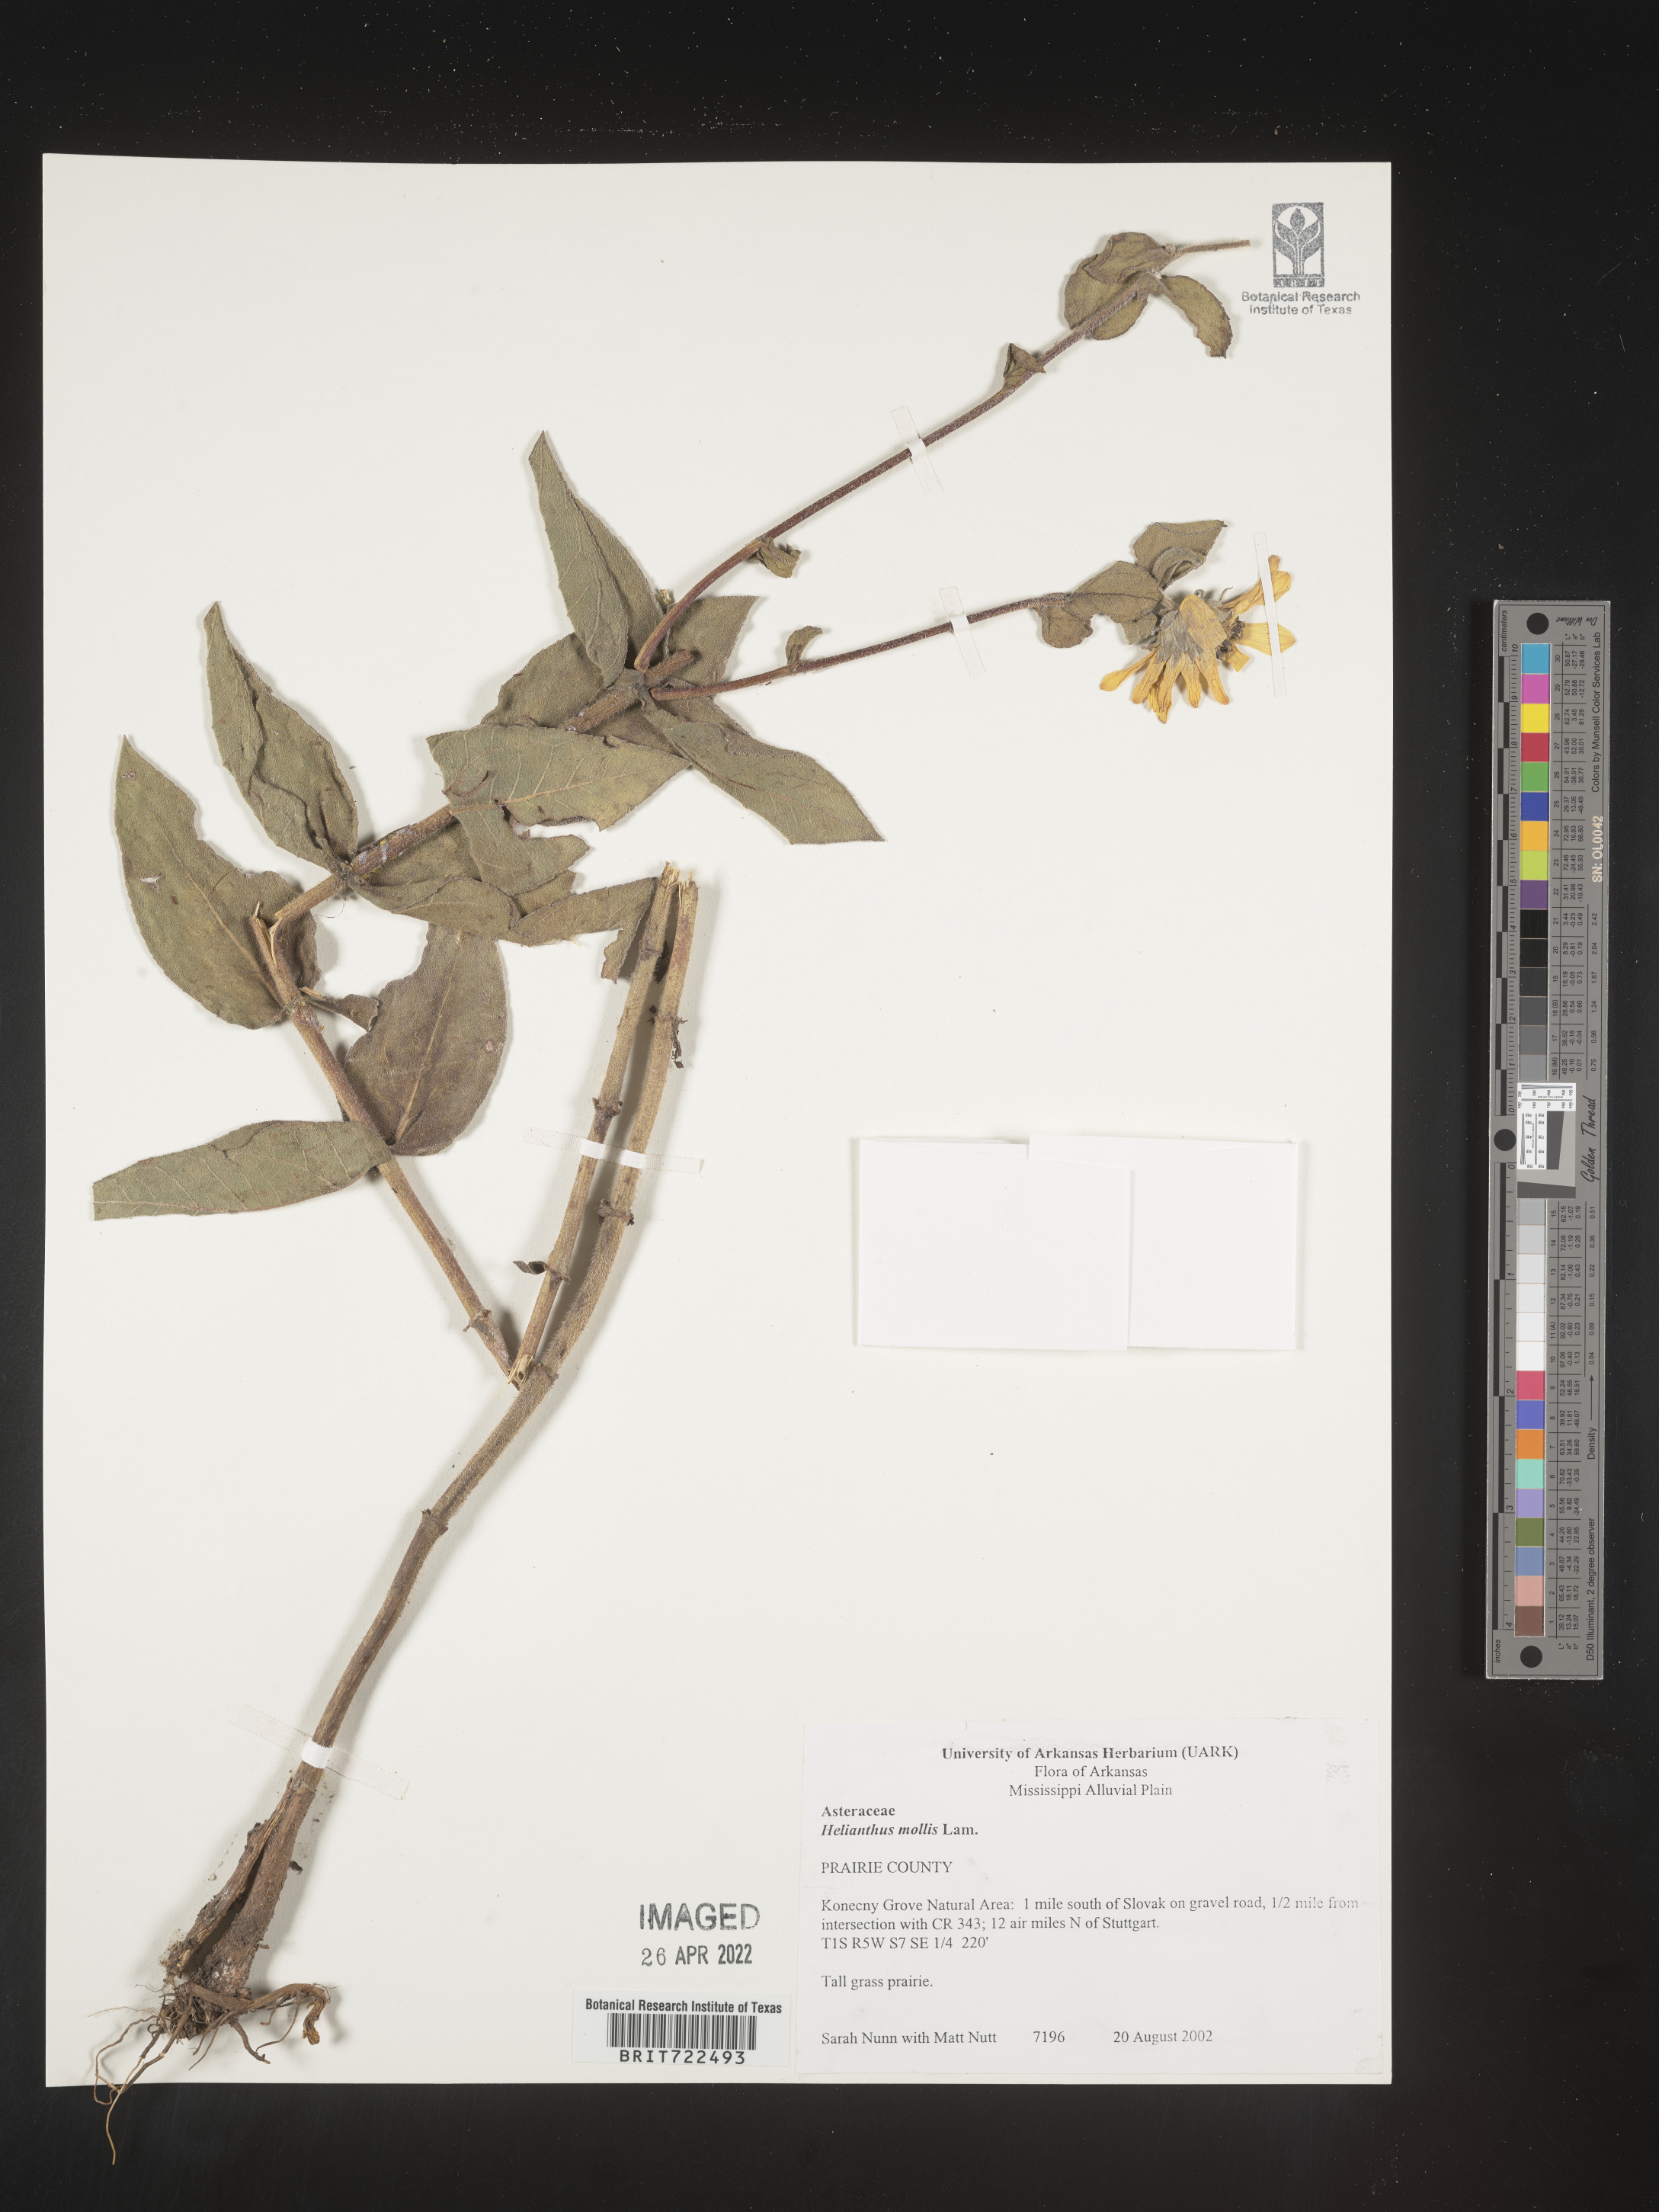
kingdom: Plantae
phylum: Tracheophyta
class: Magnoliopsida
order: Asterales
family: Asteraceae
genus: Helianthus
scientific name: Helianthus mollis
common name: Ashy sunflower
